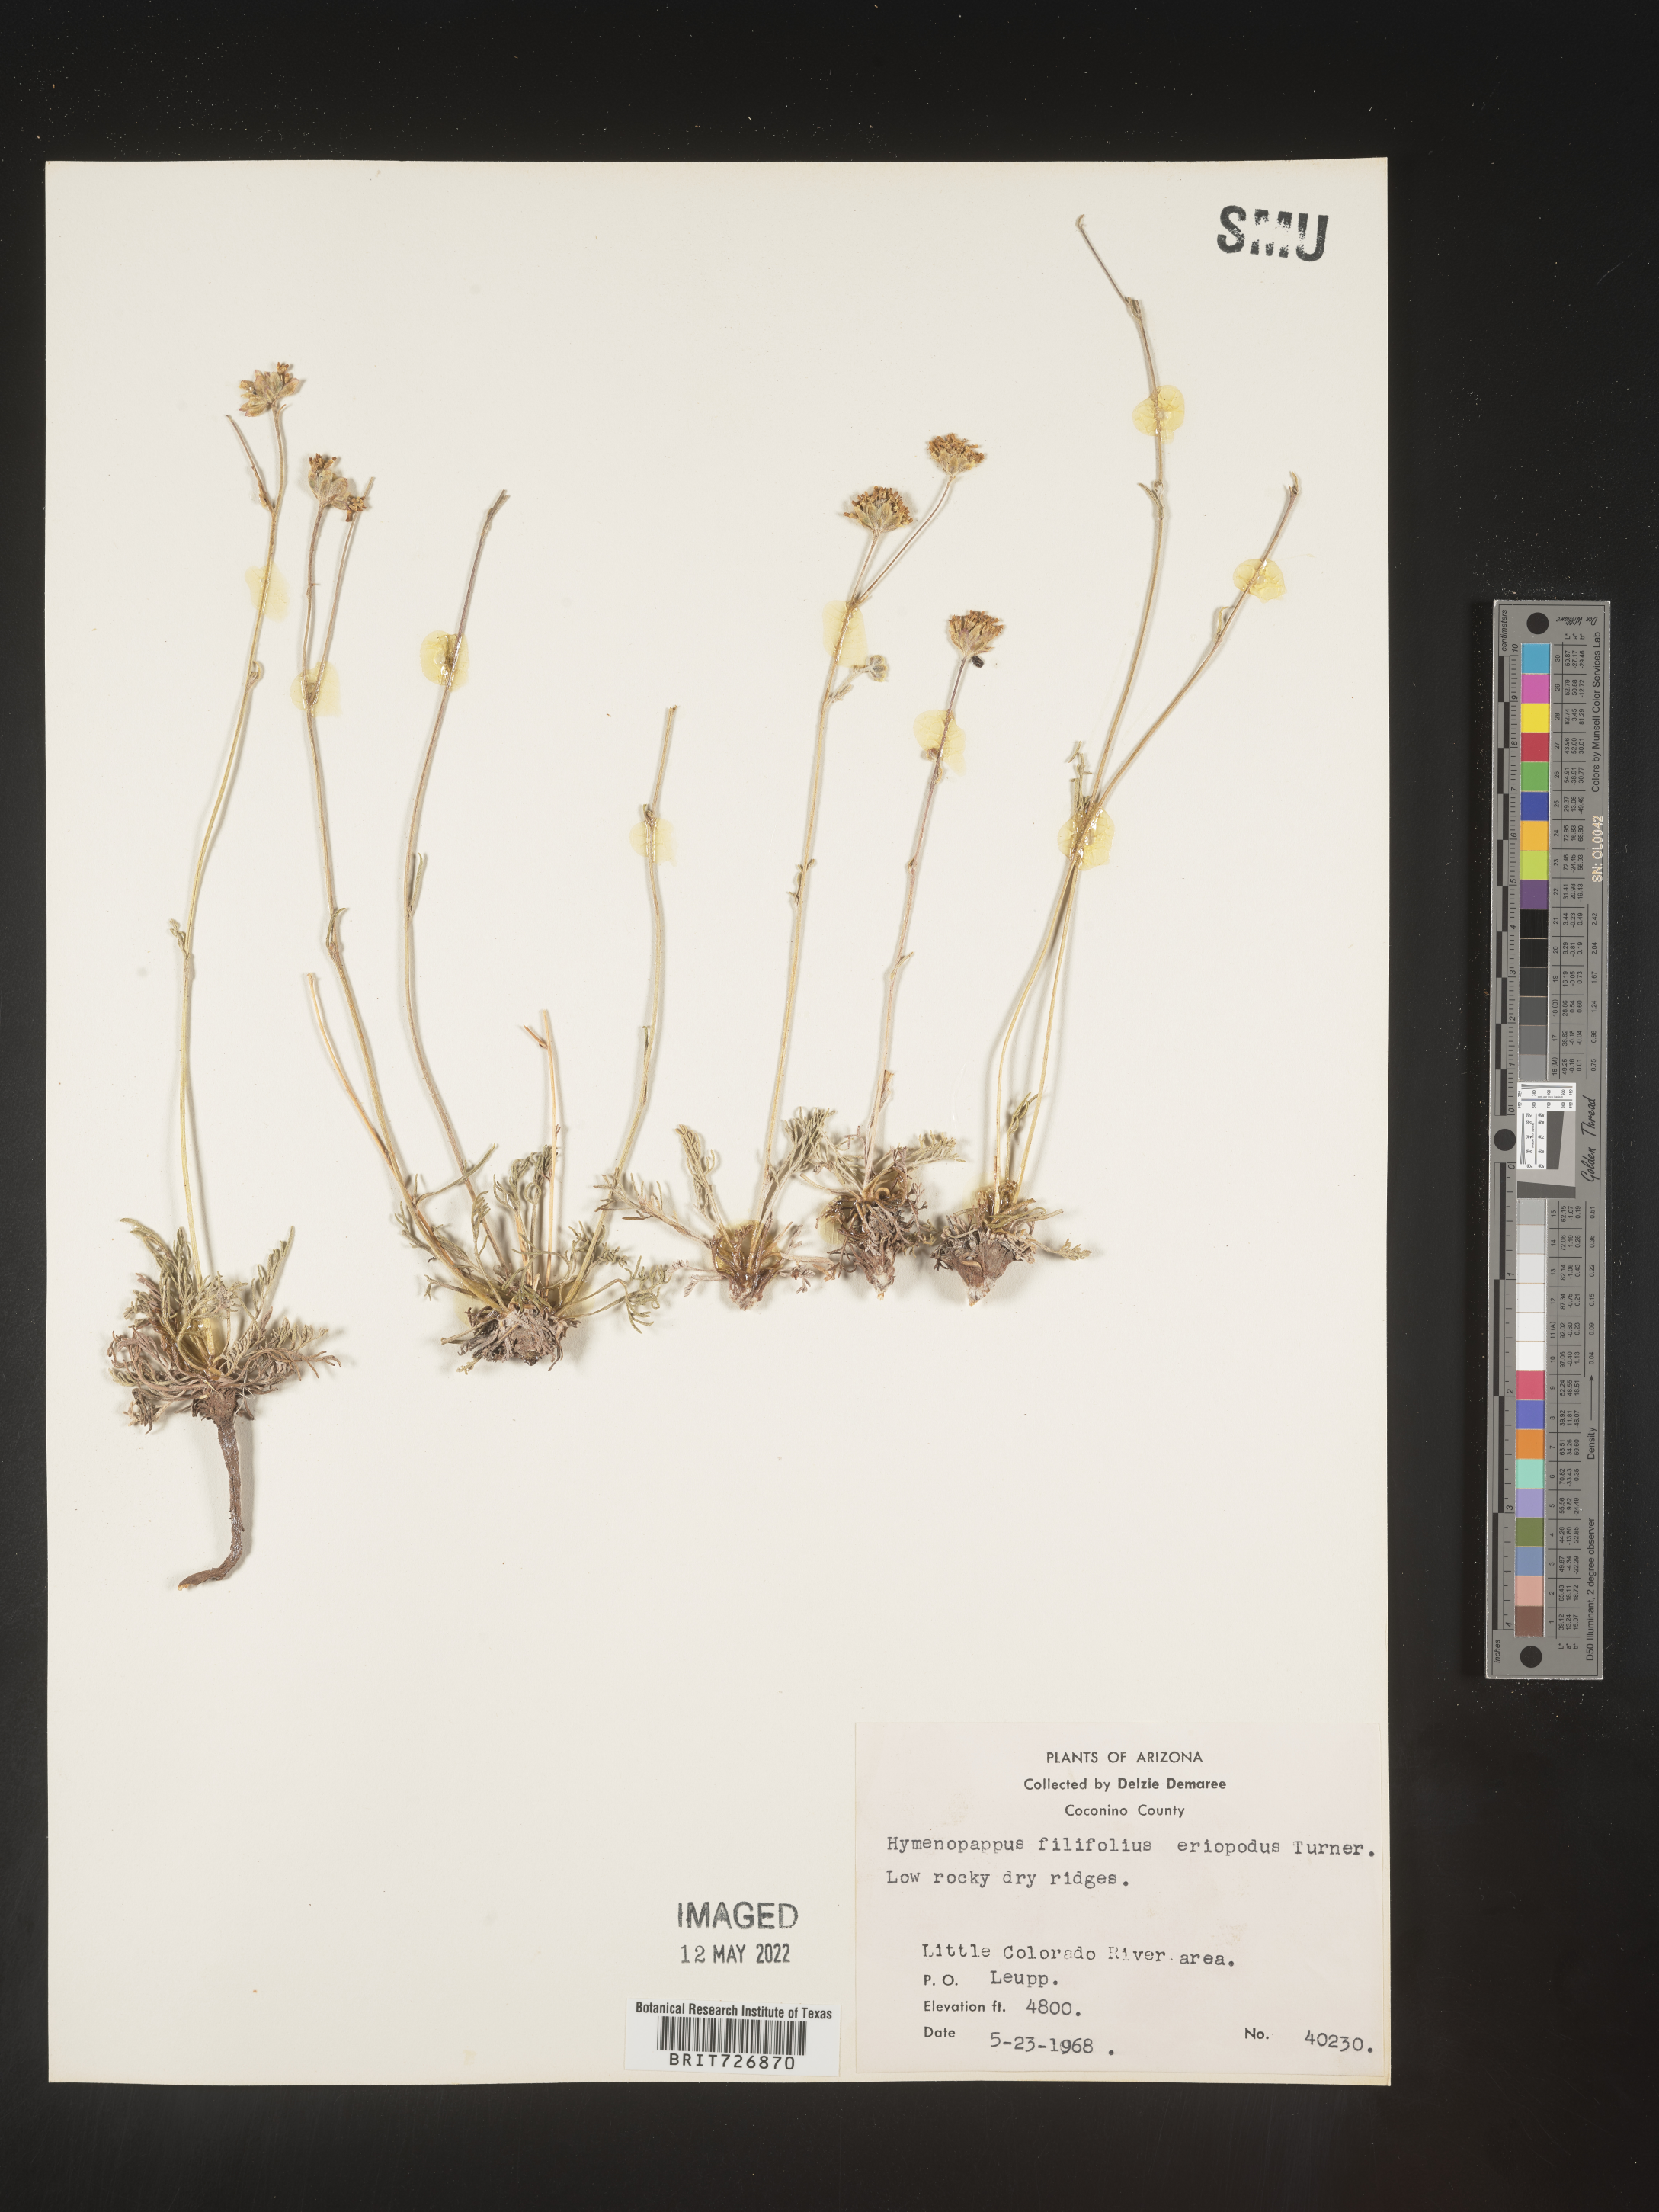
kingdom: Plantae
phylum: Tracheophyta
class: Magnoliopsida
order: Asterales
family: Asteraceae
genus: Hymenopappus
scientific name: Hymenopappus filifolius
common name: Columbia cutleaf
